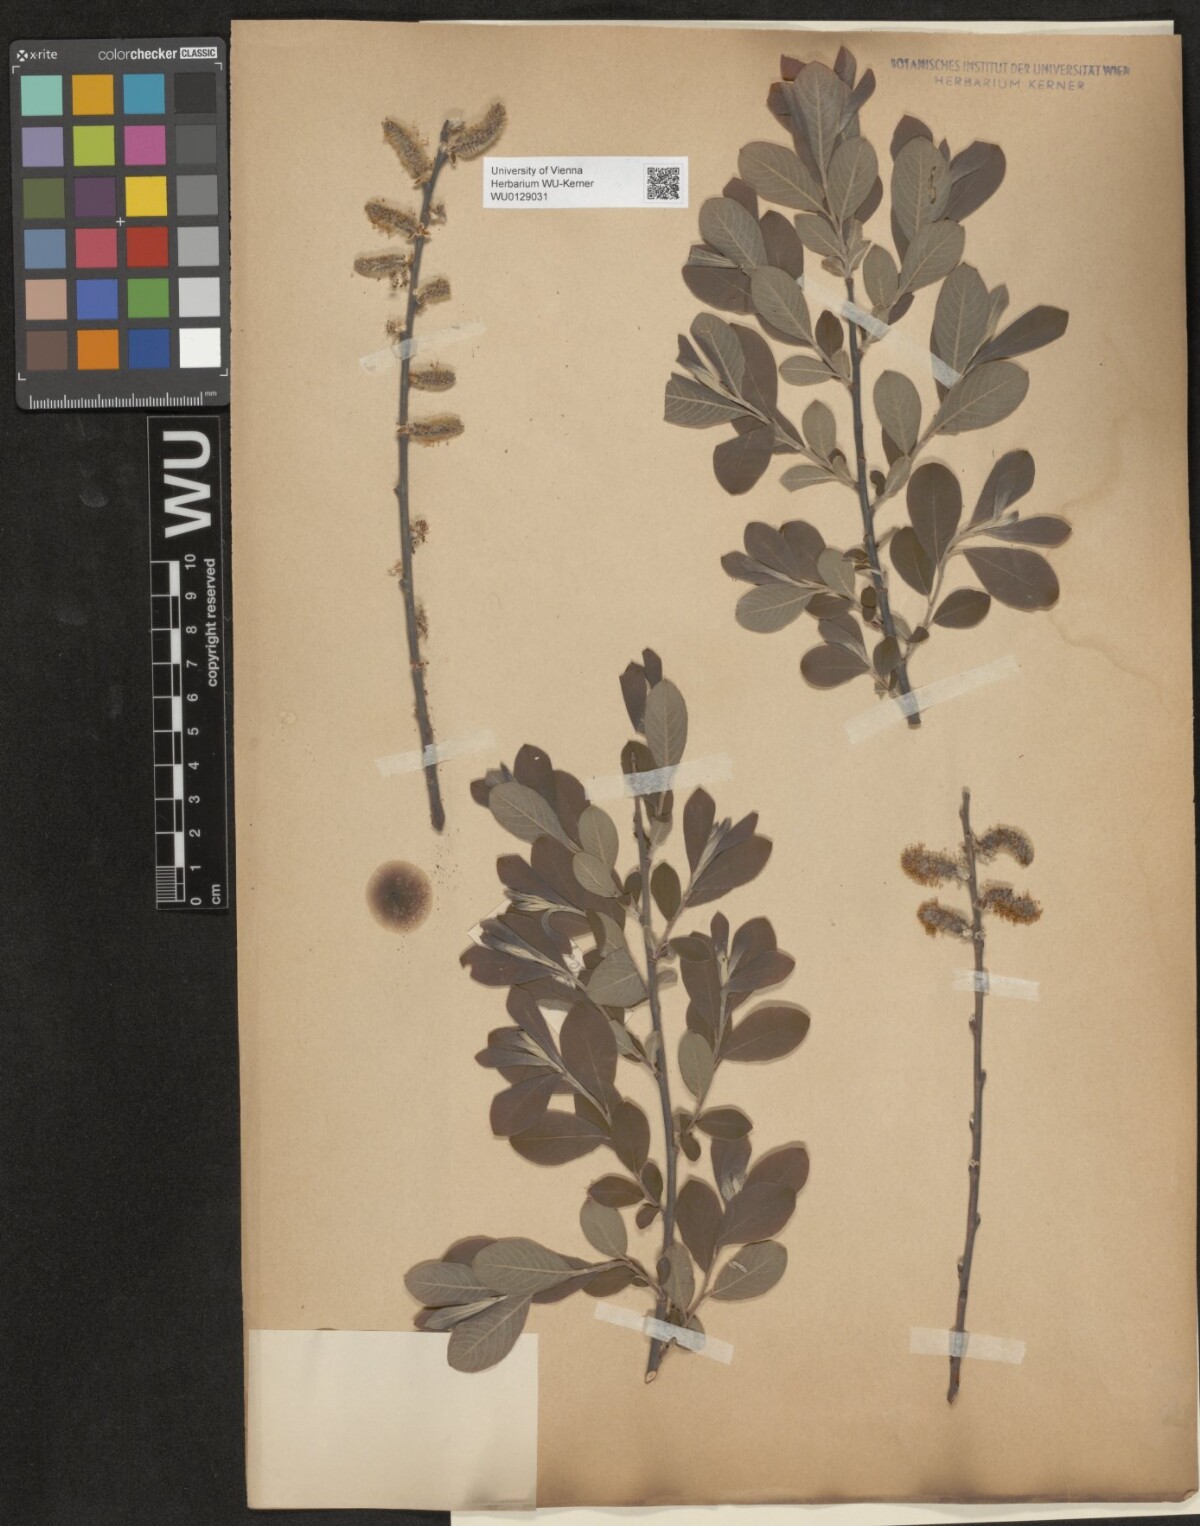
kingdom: Plantae
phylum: Tracheophyta
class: Magnoliopsida
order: Malpighiales
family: Salicaceae
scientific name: Salicaceae
